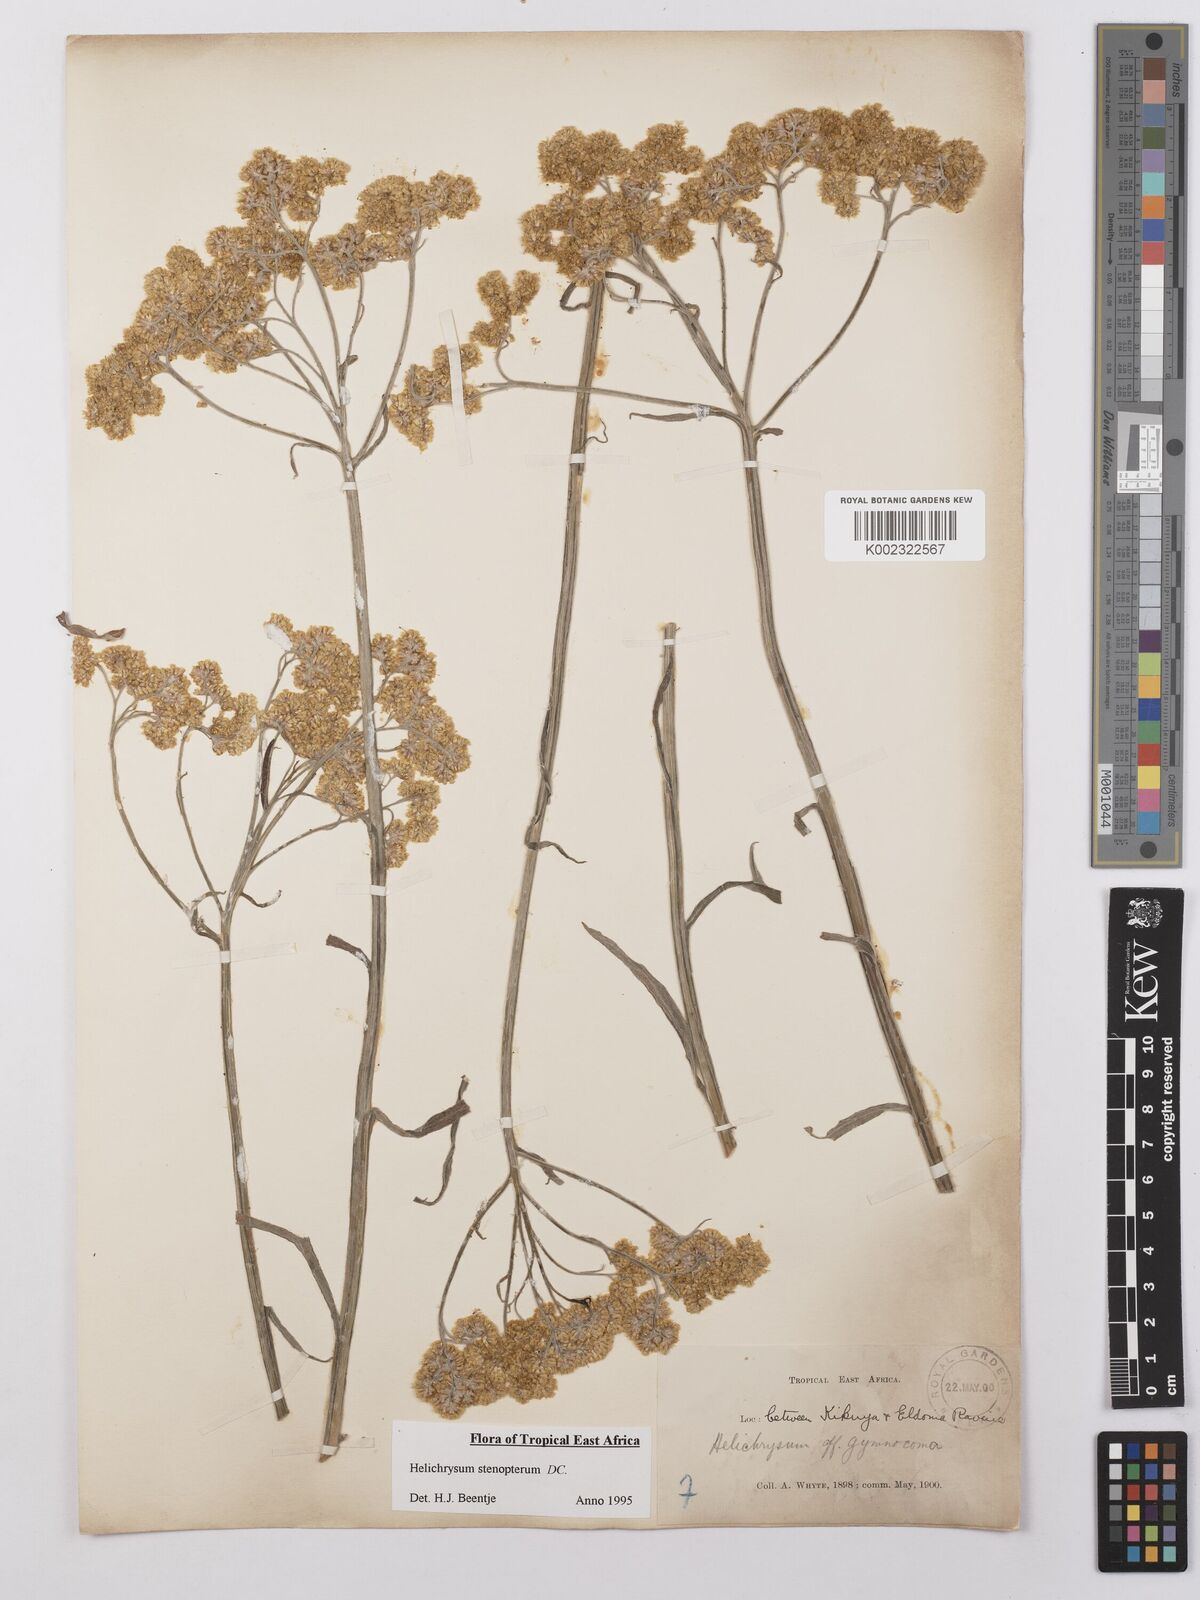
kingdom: Plantae
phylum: Tracheophyta
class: Magnoliopsida
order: Asterales
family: Asteraceae
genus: Helichrysum
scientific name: Helichrysum stenopterum
